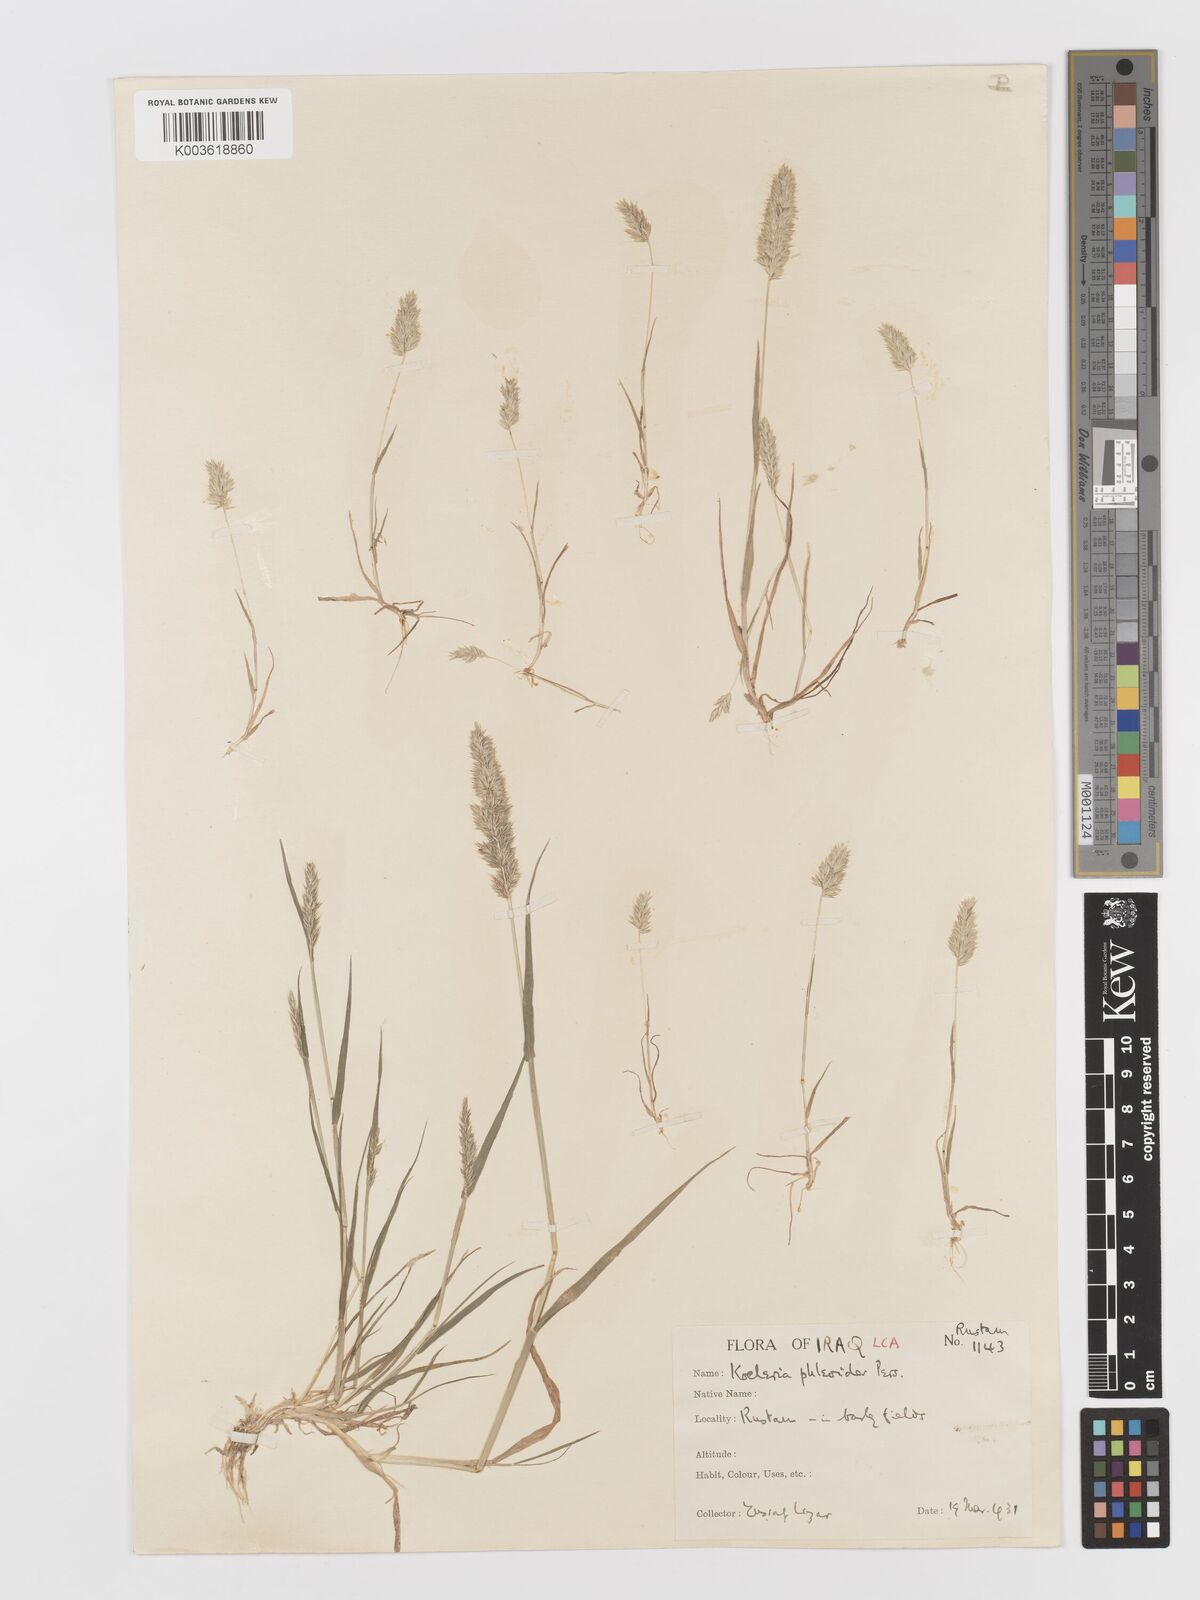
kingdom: Plantae
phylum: Tracheophyta
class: Liliopsida
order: Poales
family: Poaceae
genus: Rostraria
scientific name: Rostraria cristata
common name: Mediterranean hair-grass
